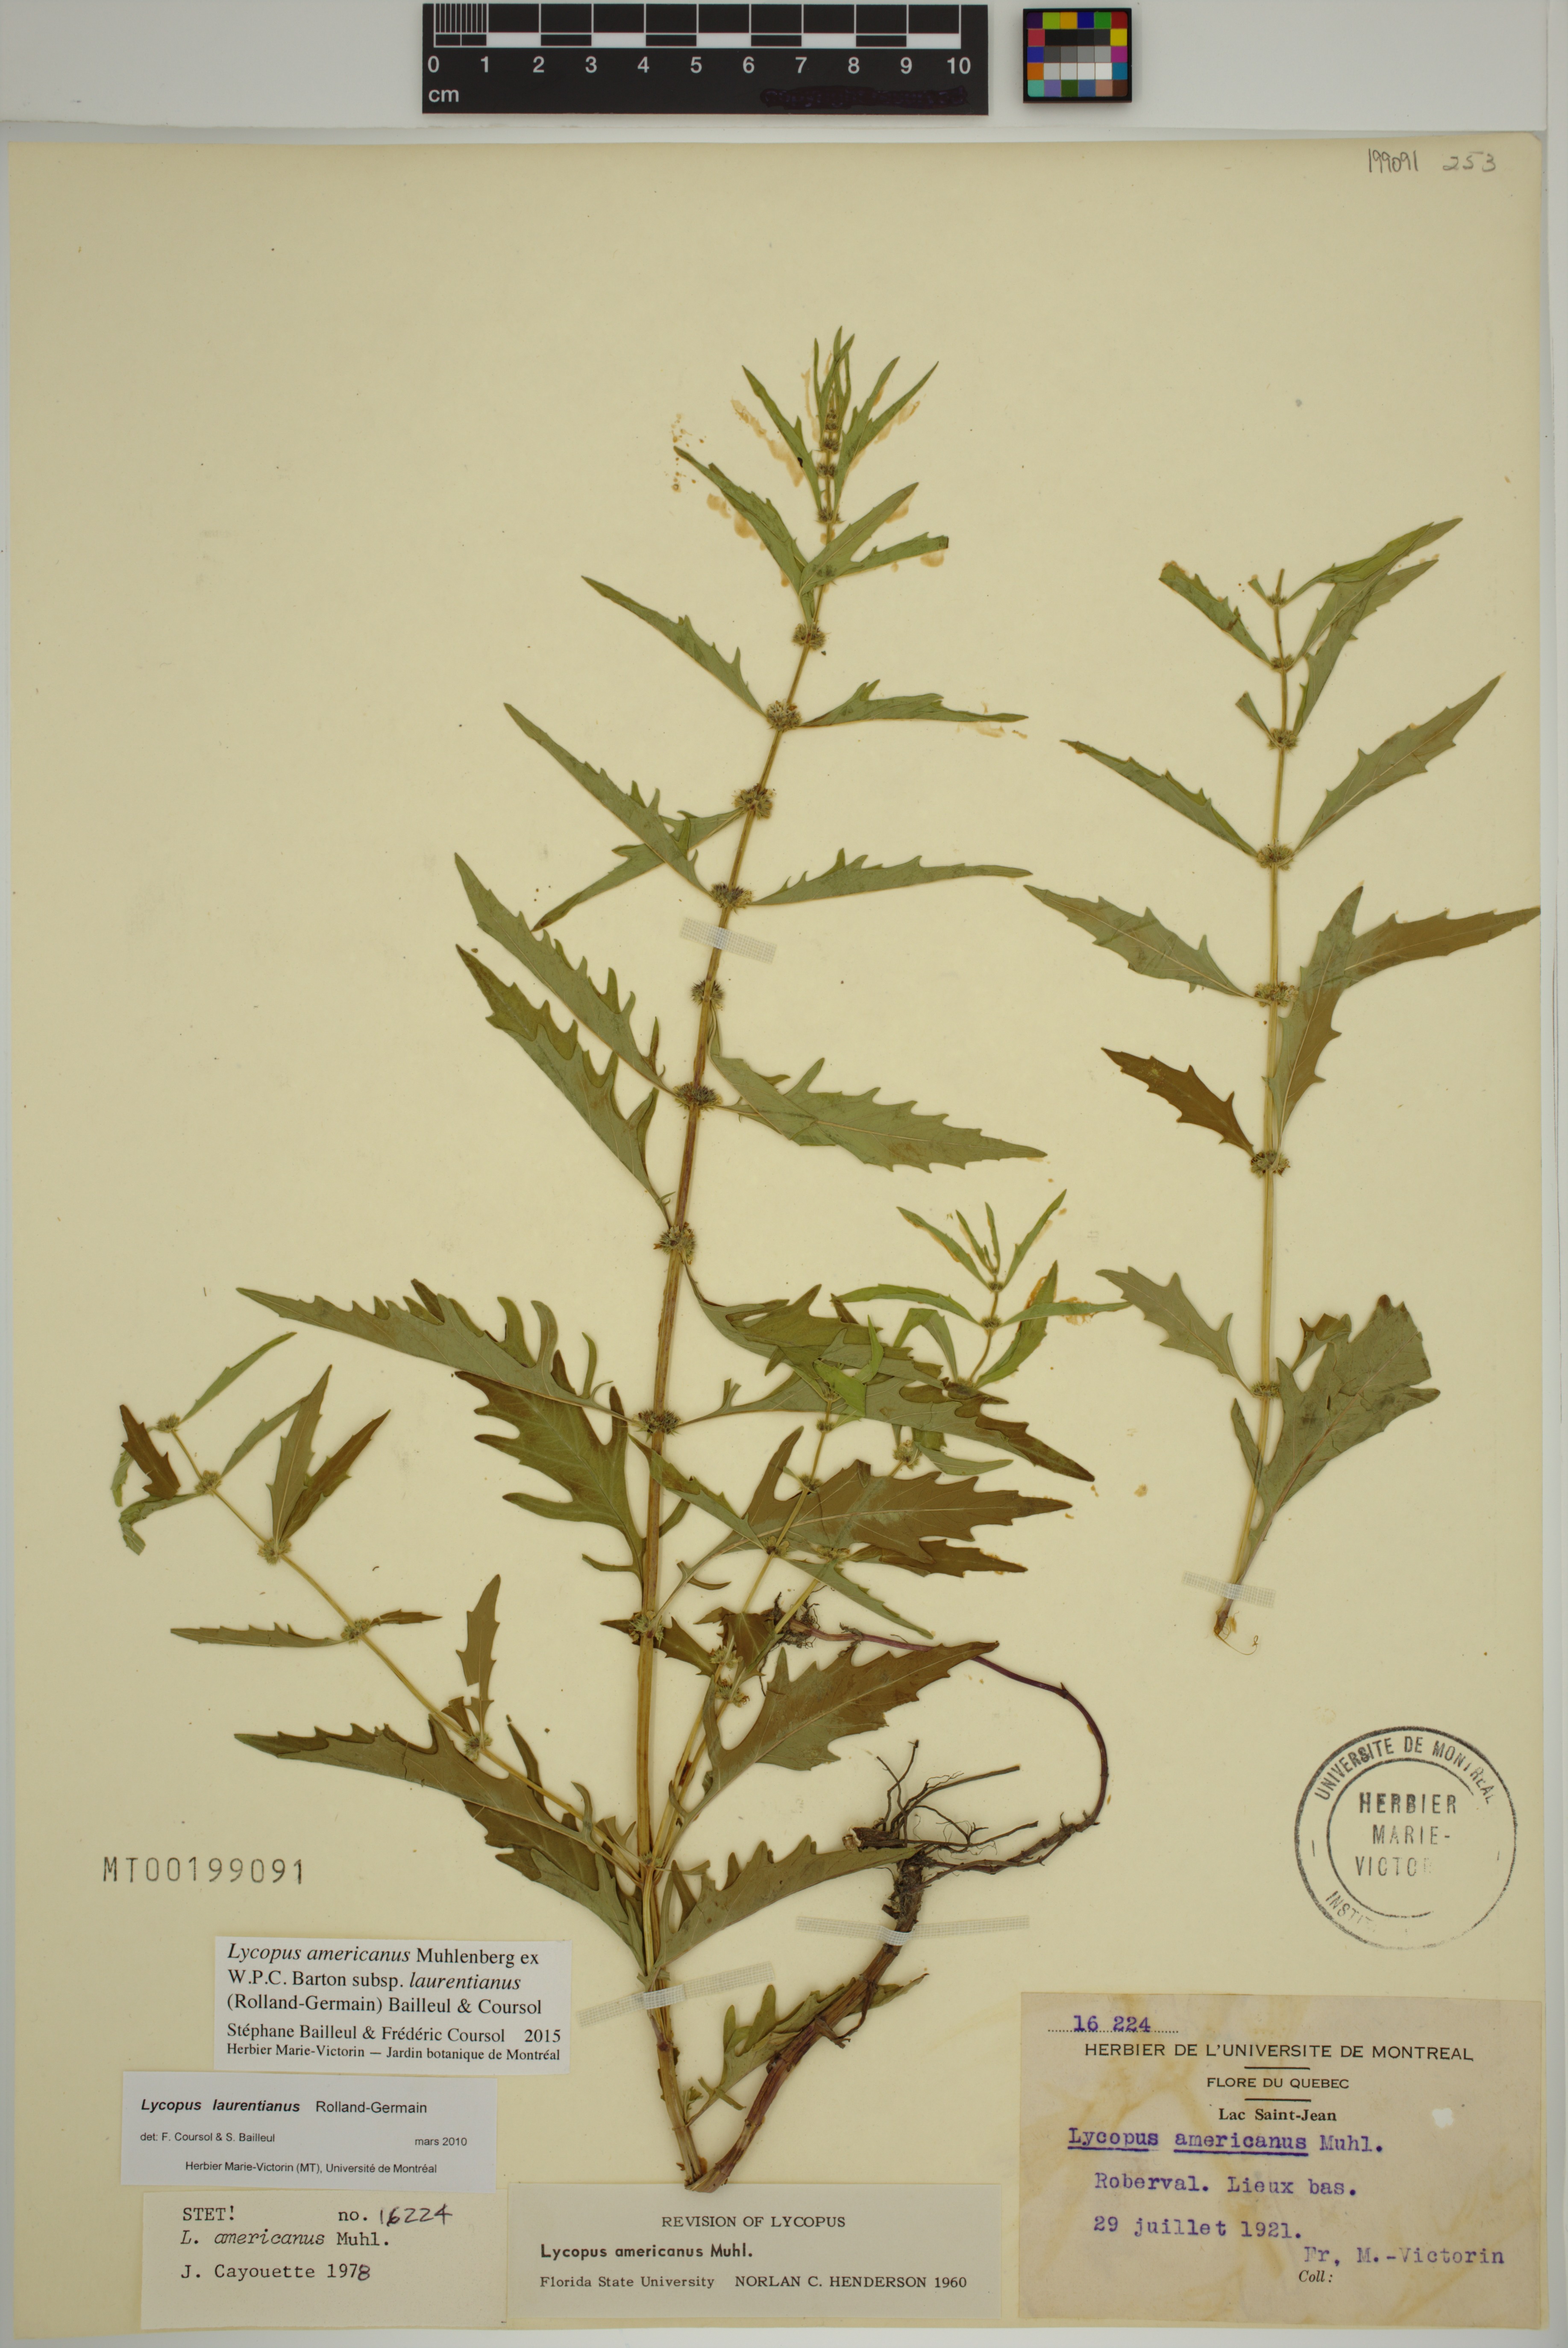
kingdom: Plantae
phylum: Tracheophyta
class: Magnoliopsida
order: Lamiales
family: Lamiaceae
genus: Lycopus
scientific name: Lycopus americanus
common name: American bugleweed
